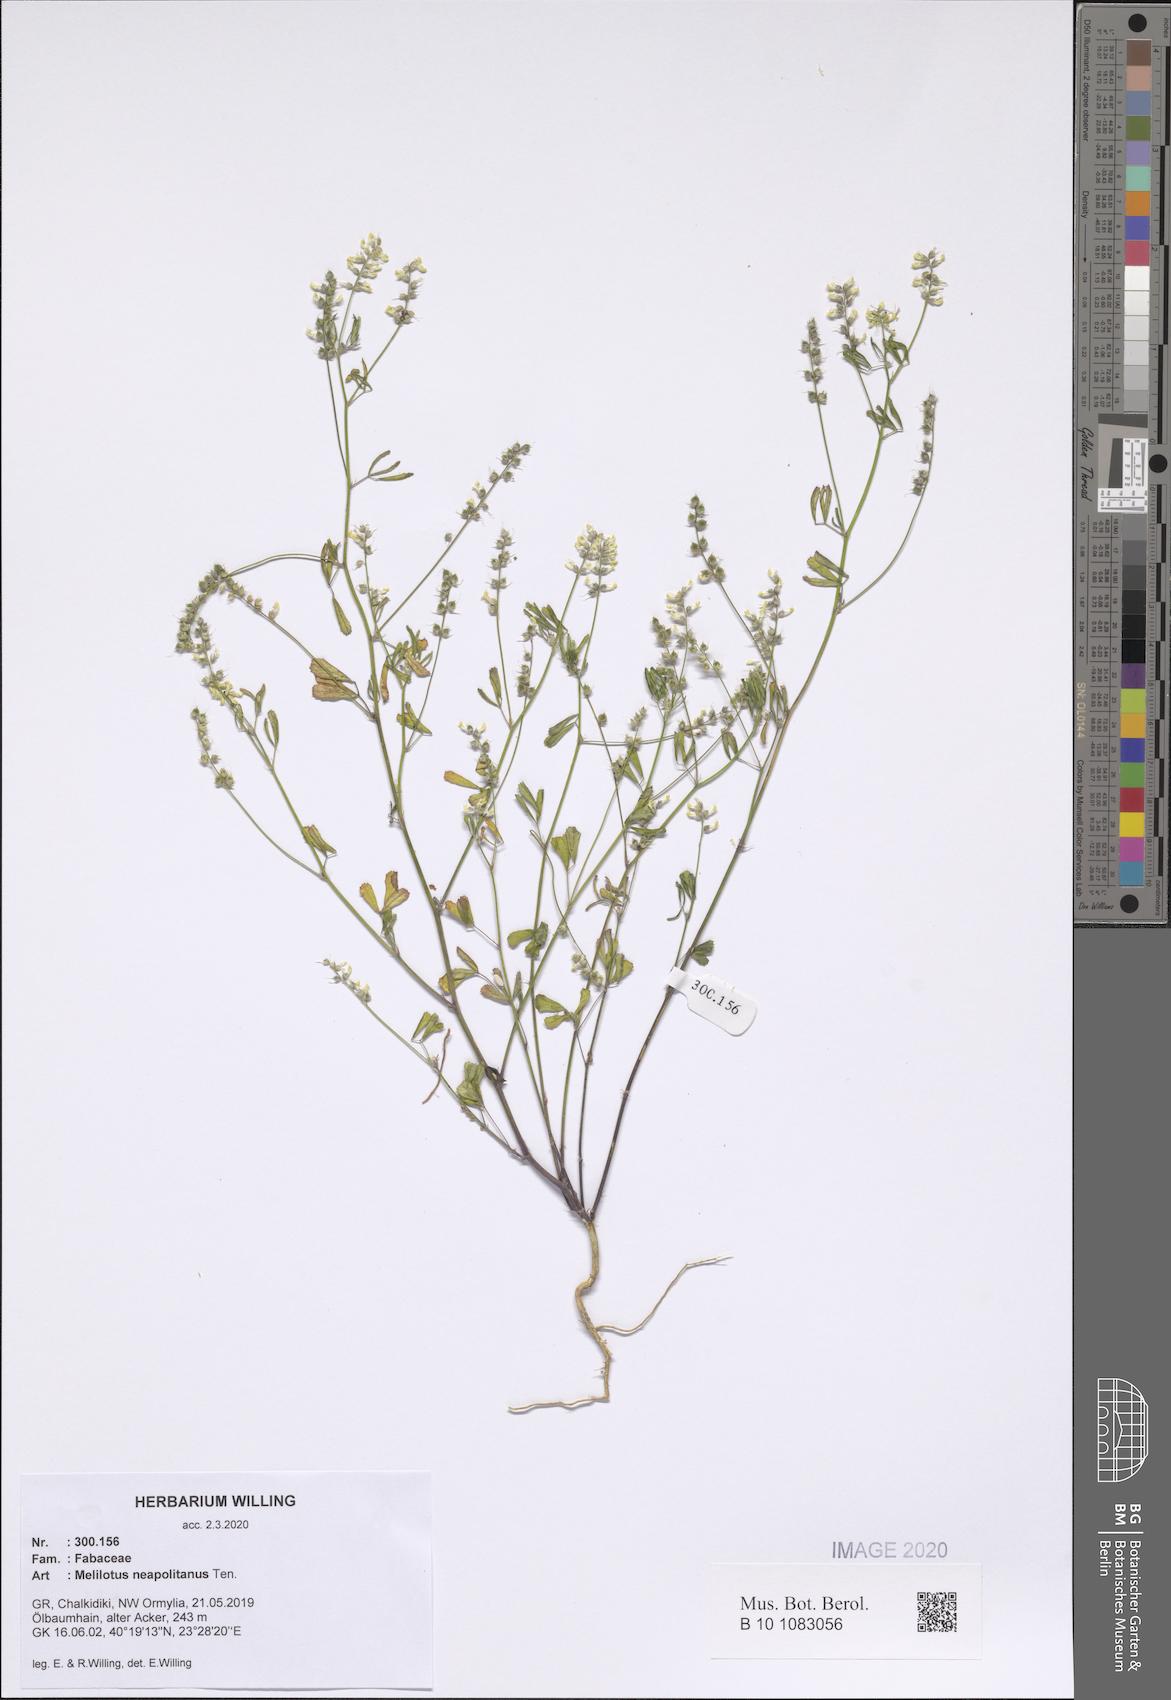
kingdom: Plantae
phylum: Tracheophyta
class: Magnoliopsida
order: Fabales
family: Fabaceae
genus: Melilotus
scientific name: Melilotus neapolitanus
